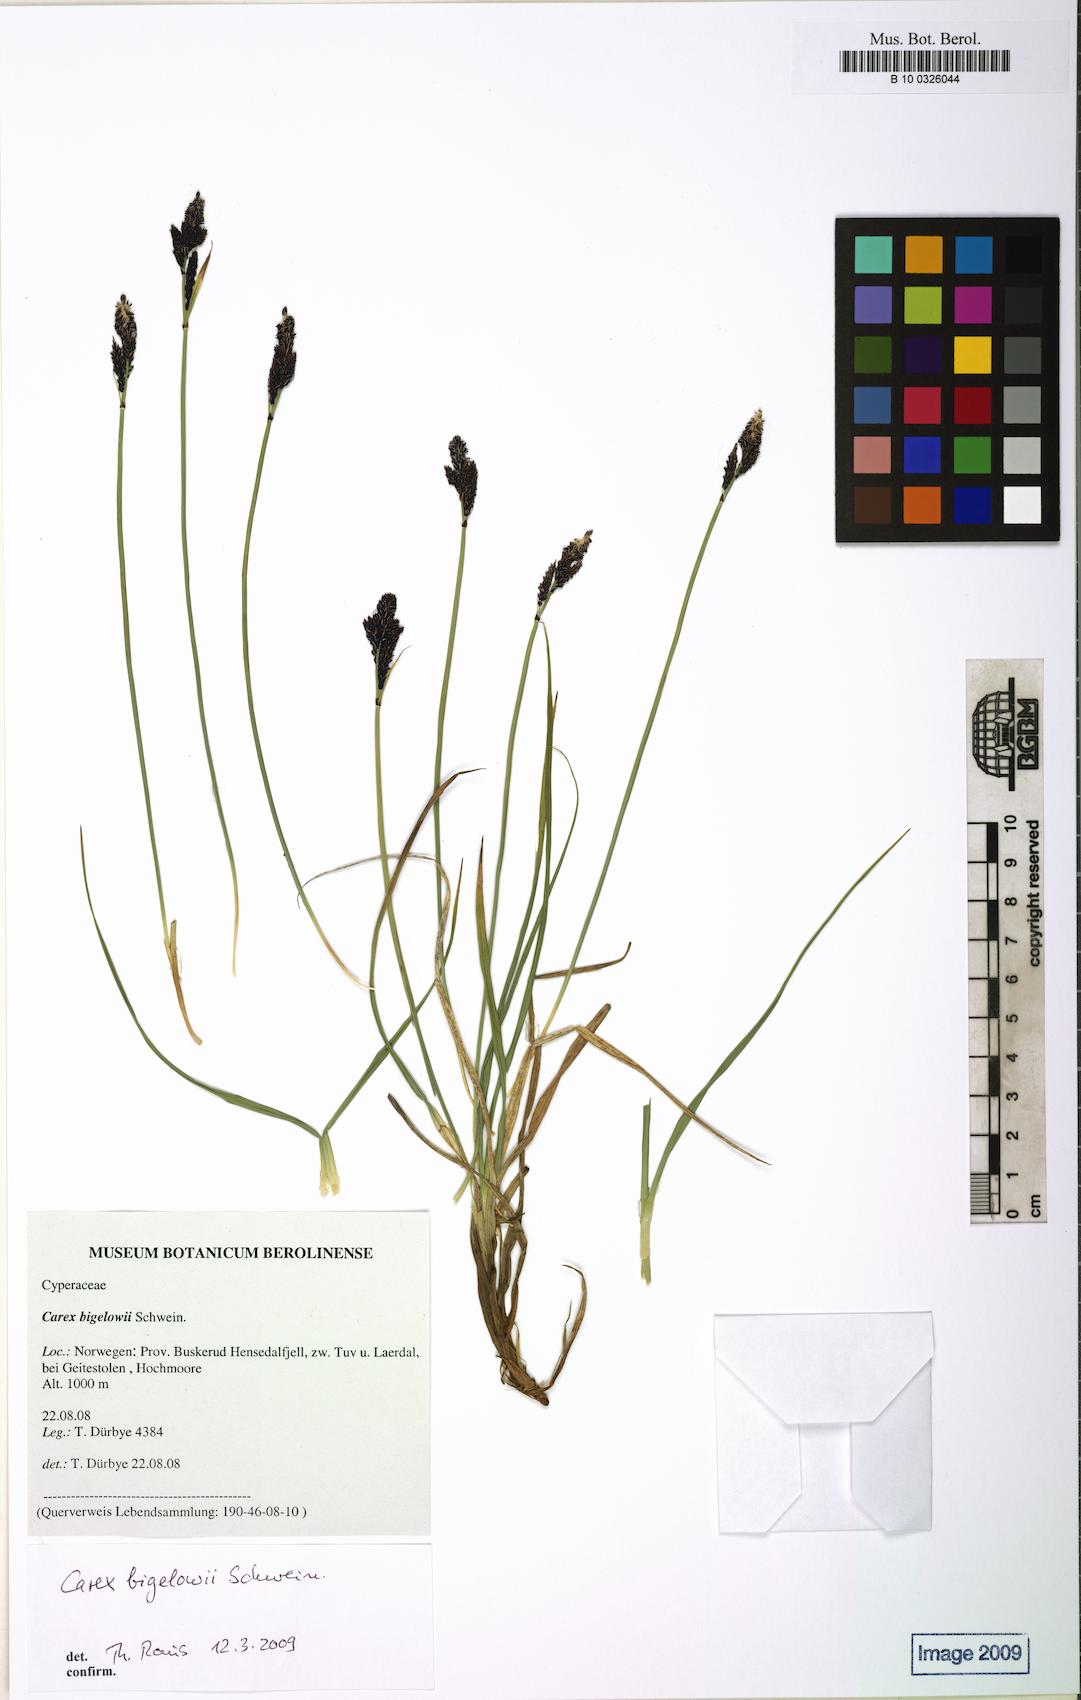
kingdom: Plantae
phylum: Tracheophyta
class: Liliopsida
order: Poales
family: Cyperaceae
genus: Carex
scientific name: Carex bigelowii
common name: Stiff sedge
